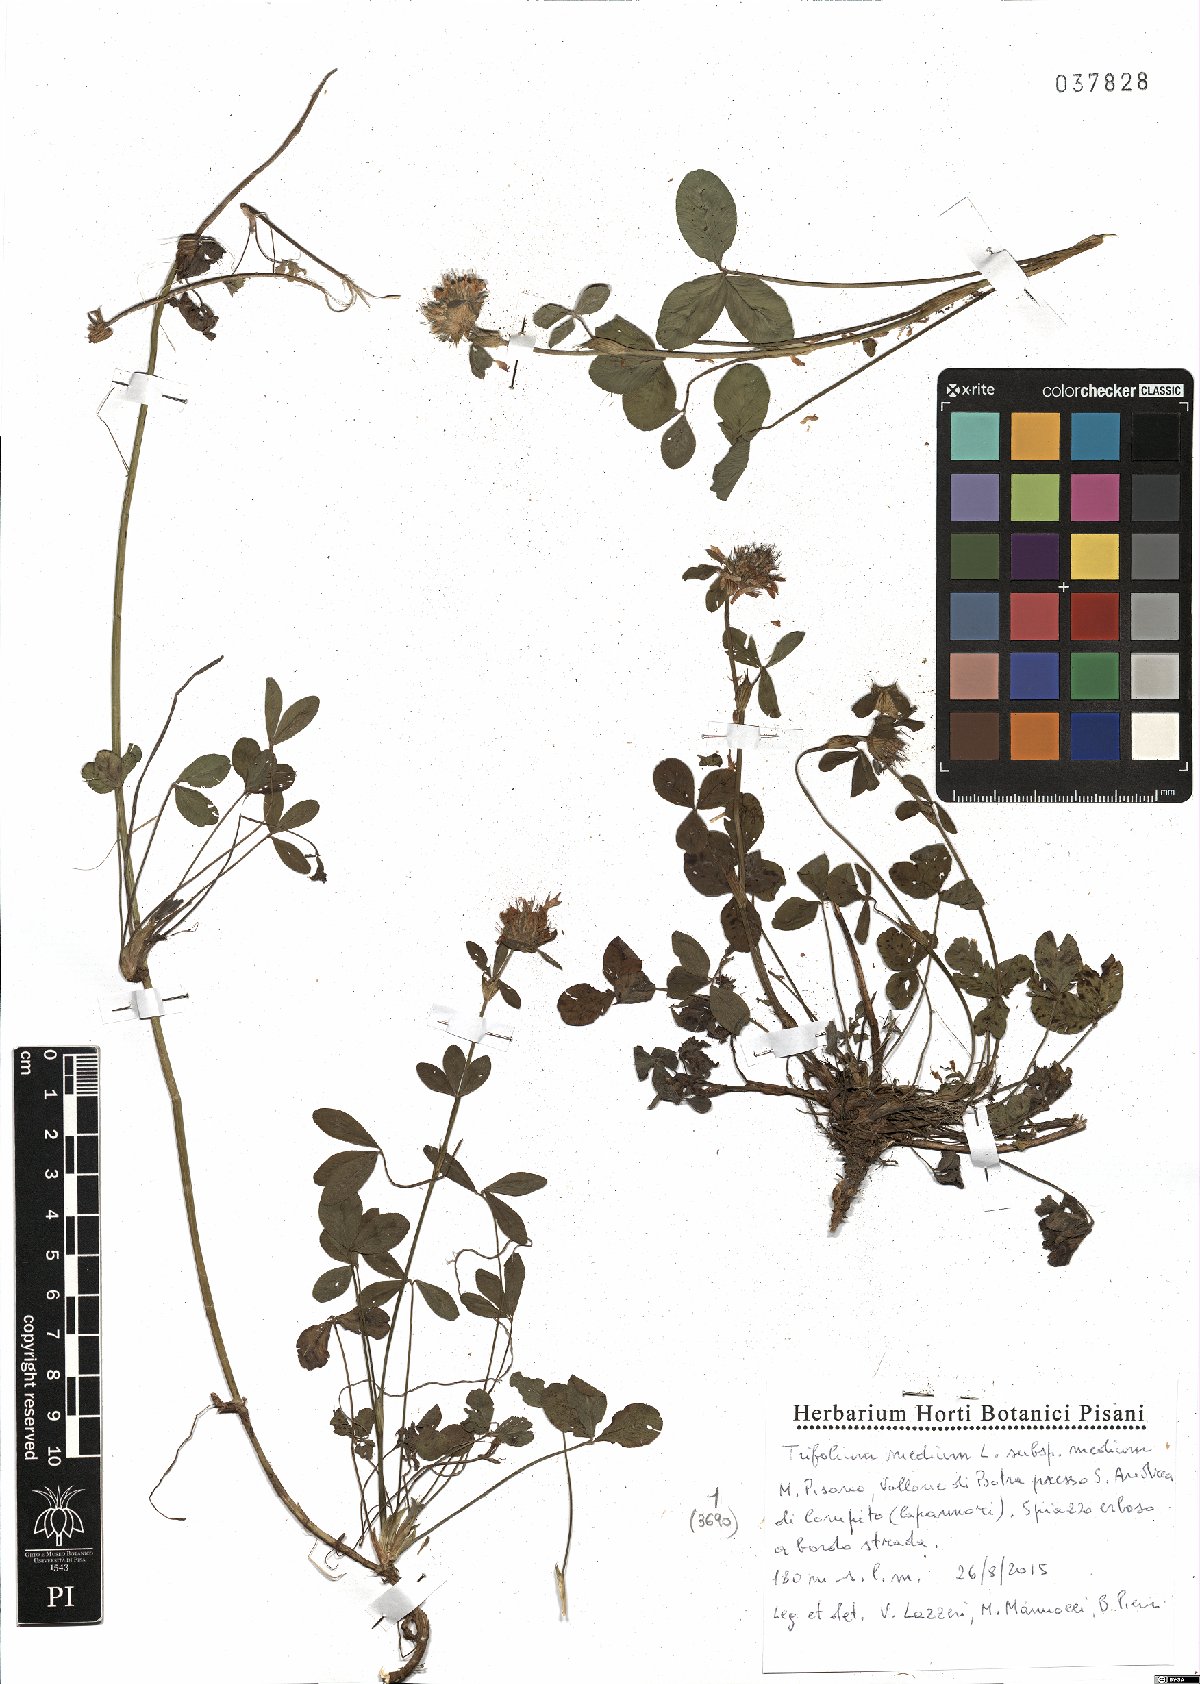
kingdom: Plantae
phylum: Tracheophyta
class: Magnoliopsida
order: Fabales
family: Fabaceae
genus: Trifolium
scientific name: Trifolium medium
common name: Zigzag clover
